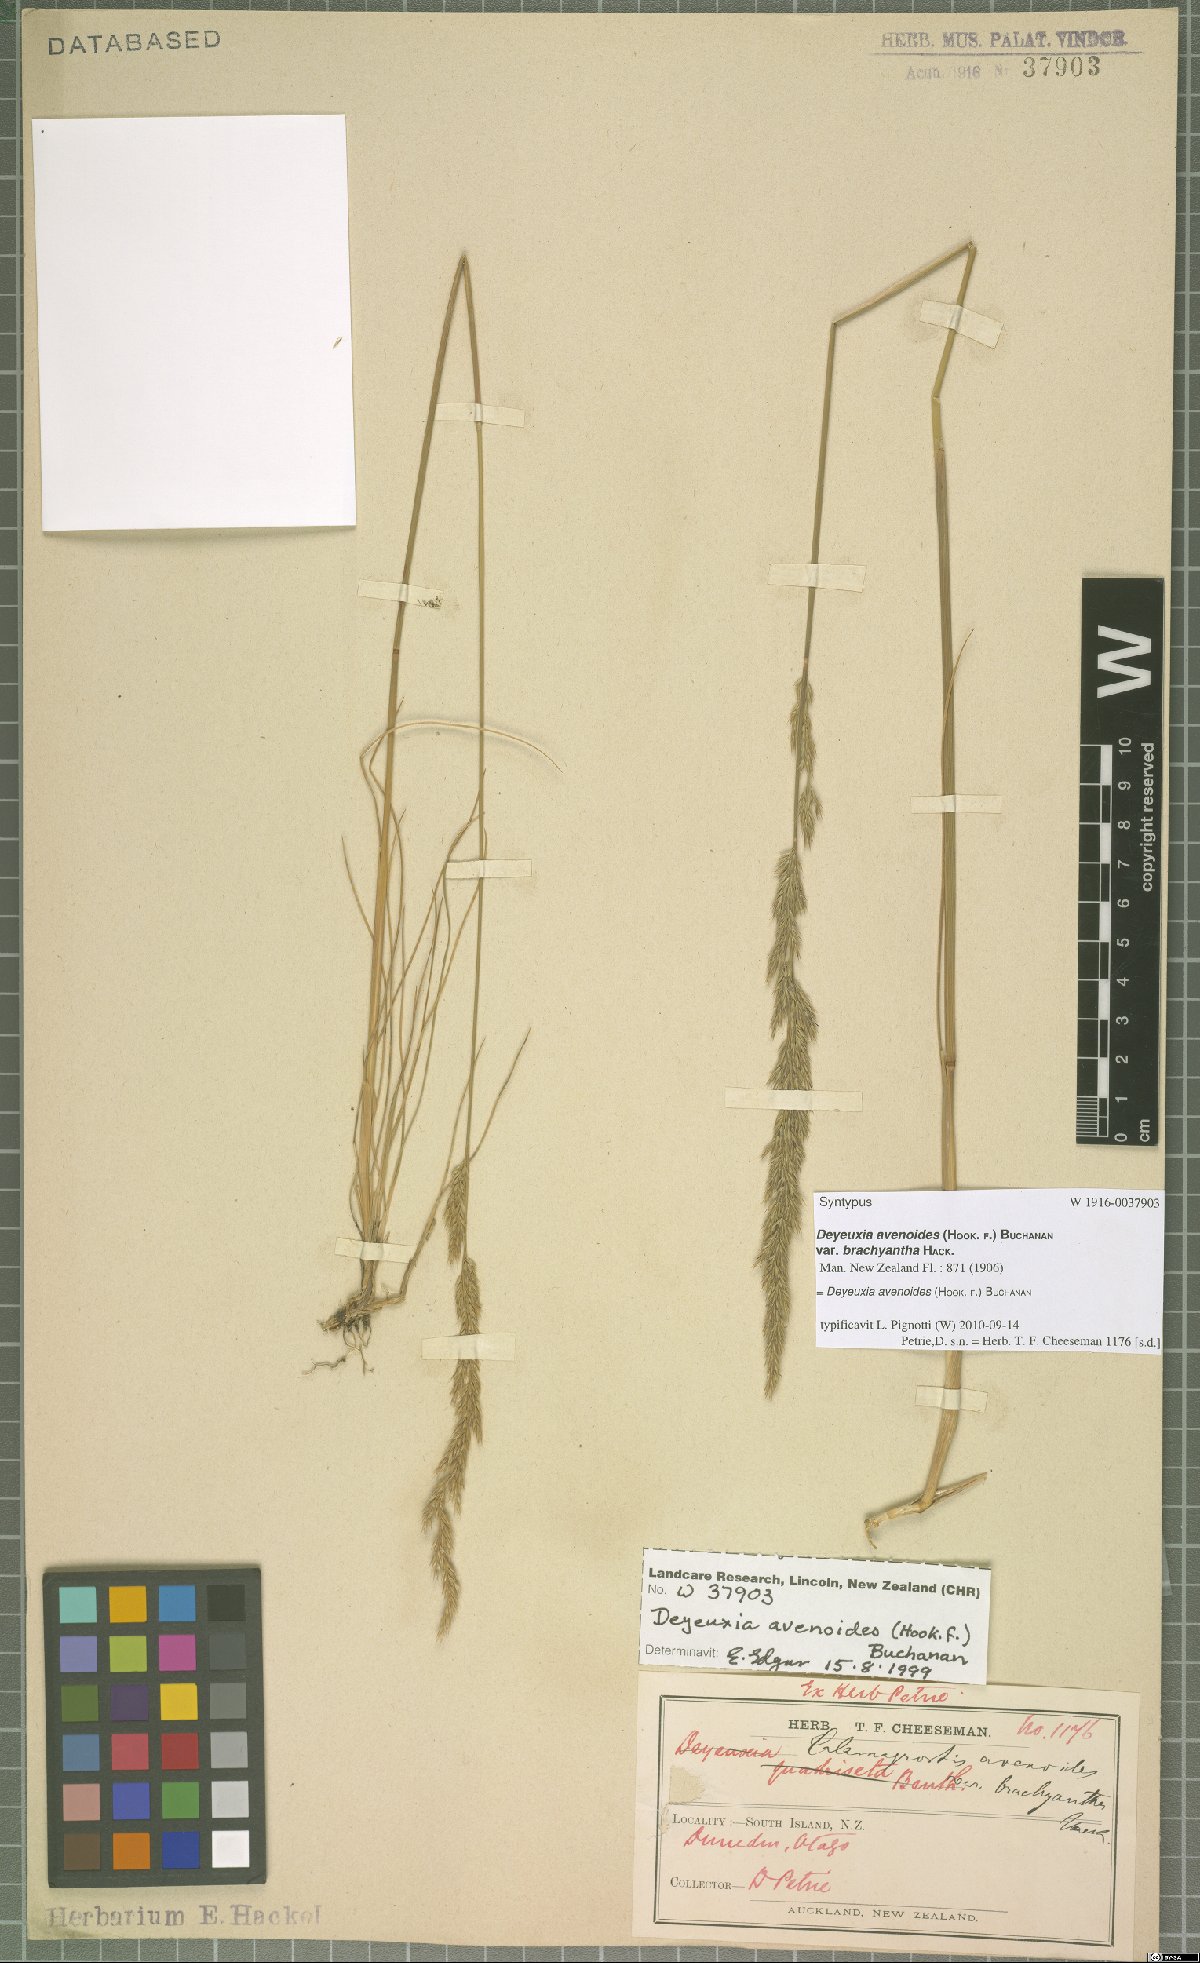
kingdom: Plantae
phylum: Tracheophyta
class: Liliopsida
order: Poales
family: Poaceae
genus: Calamagrostis
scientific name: Calamagrostis avenoides
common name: Mountain oat grass
